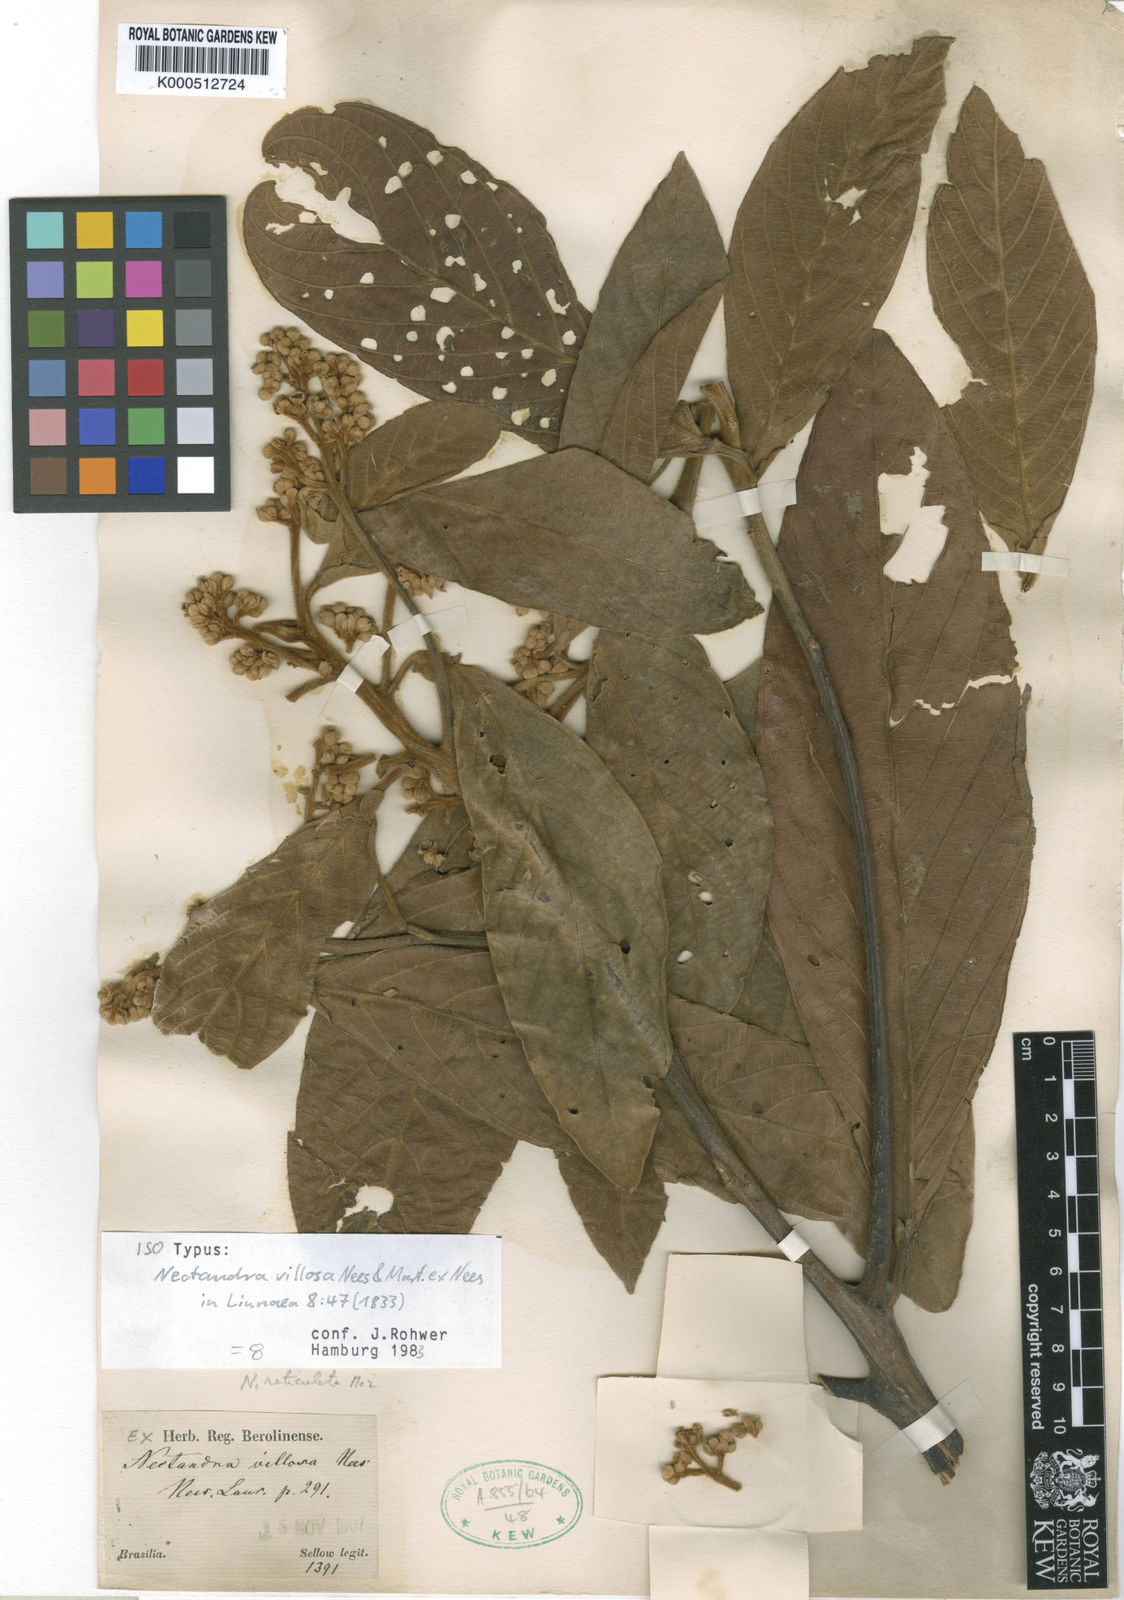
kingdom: Plantae
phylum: Tracheophyta
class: Magnoliopsida
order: Laurales
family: Lauraceae
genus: Nectandra
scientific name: Nectandra villosa
